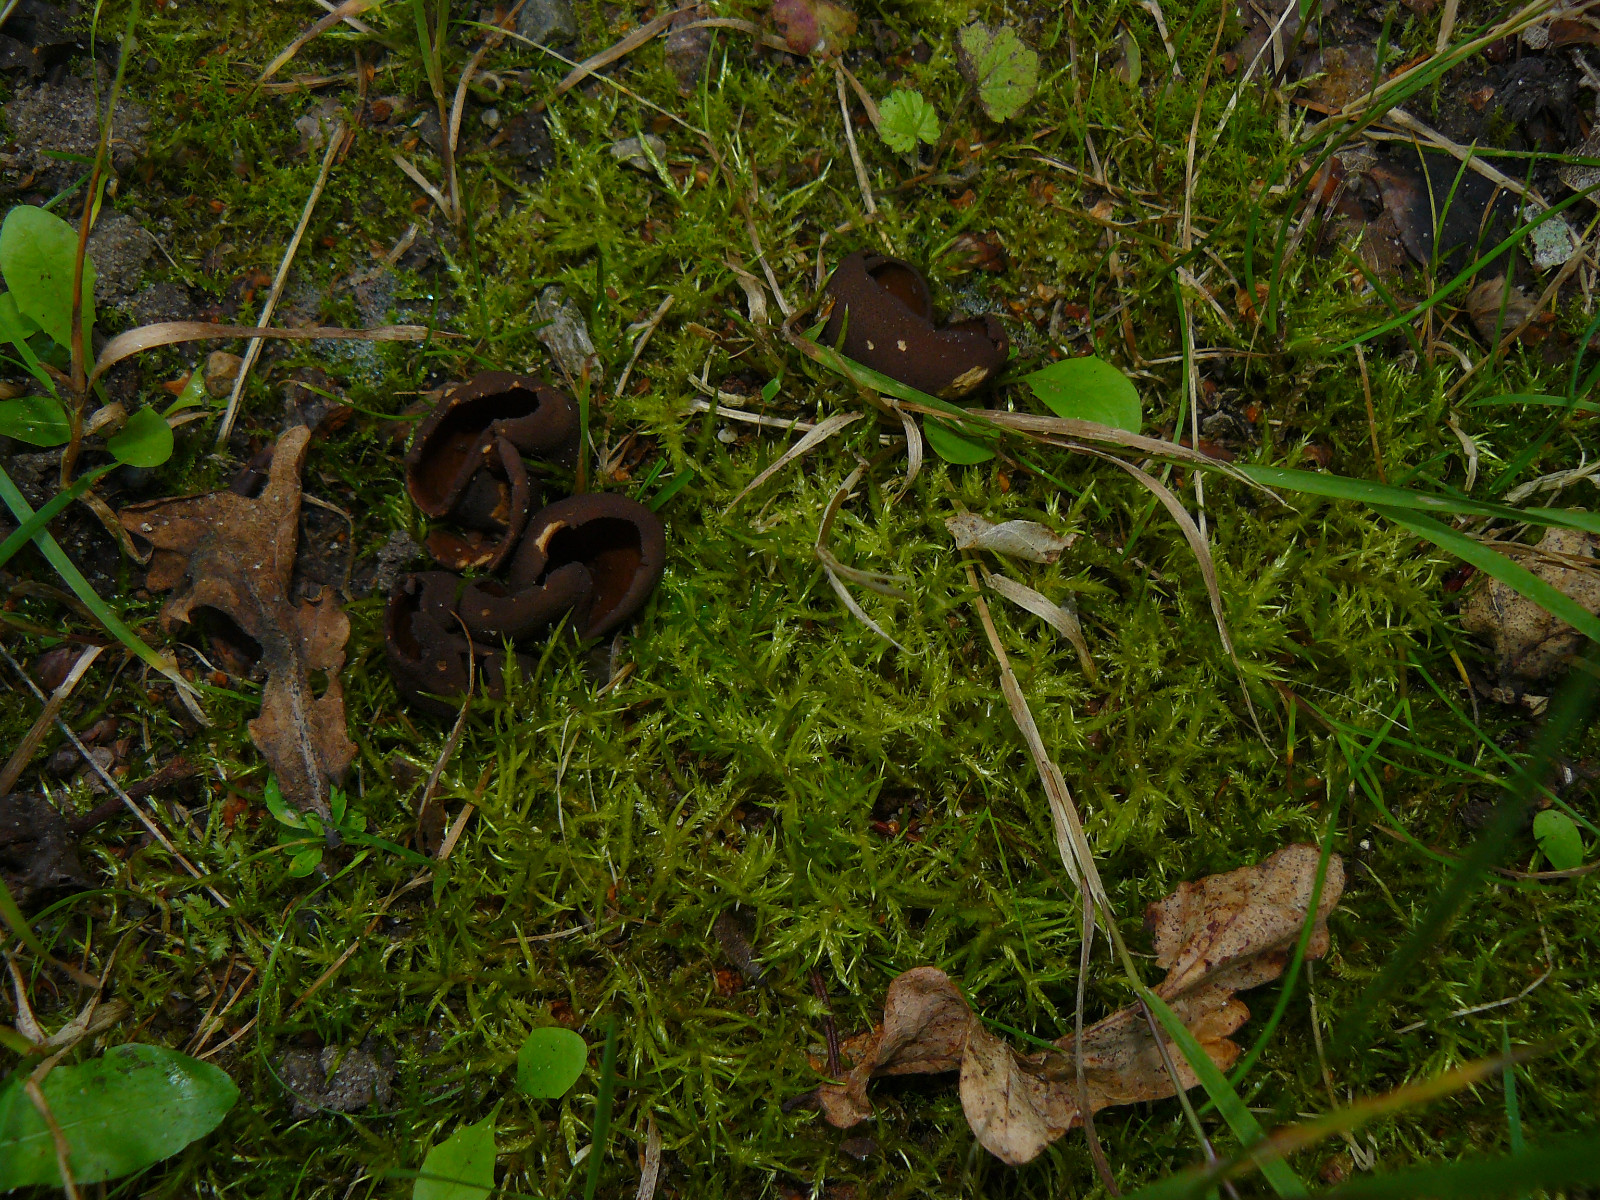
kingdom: Fungi
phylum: Ascomycota
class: Pezizomycetes
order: Pezizales
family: Otideaceae
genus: Otidea
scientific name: Otidea bufonia
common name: brun ørebæger
